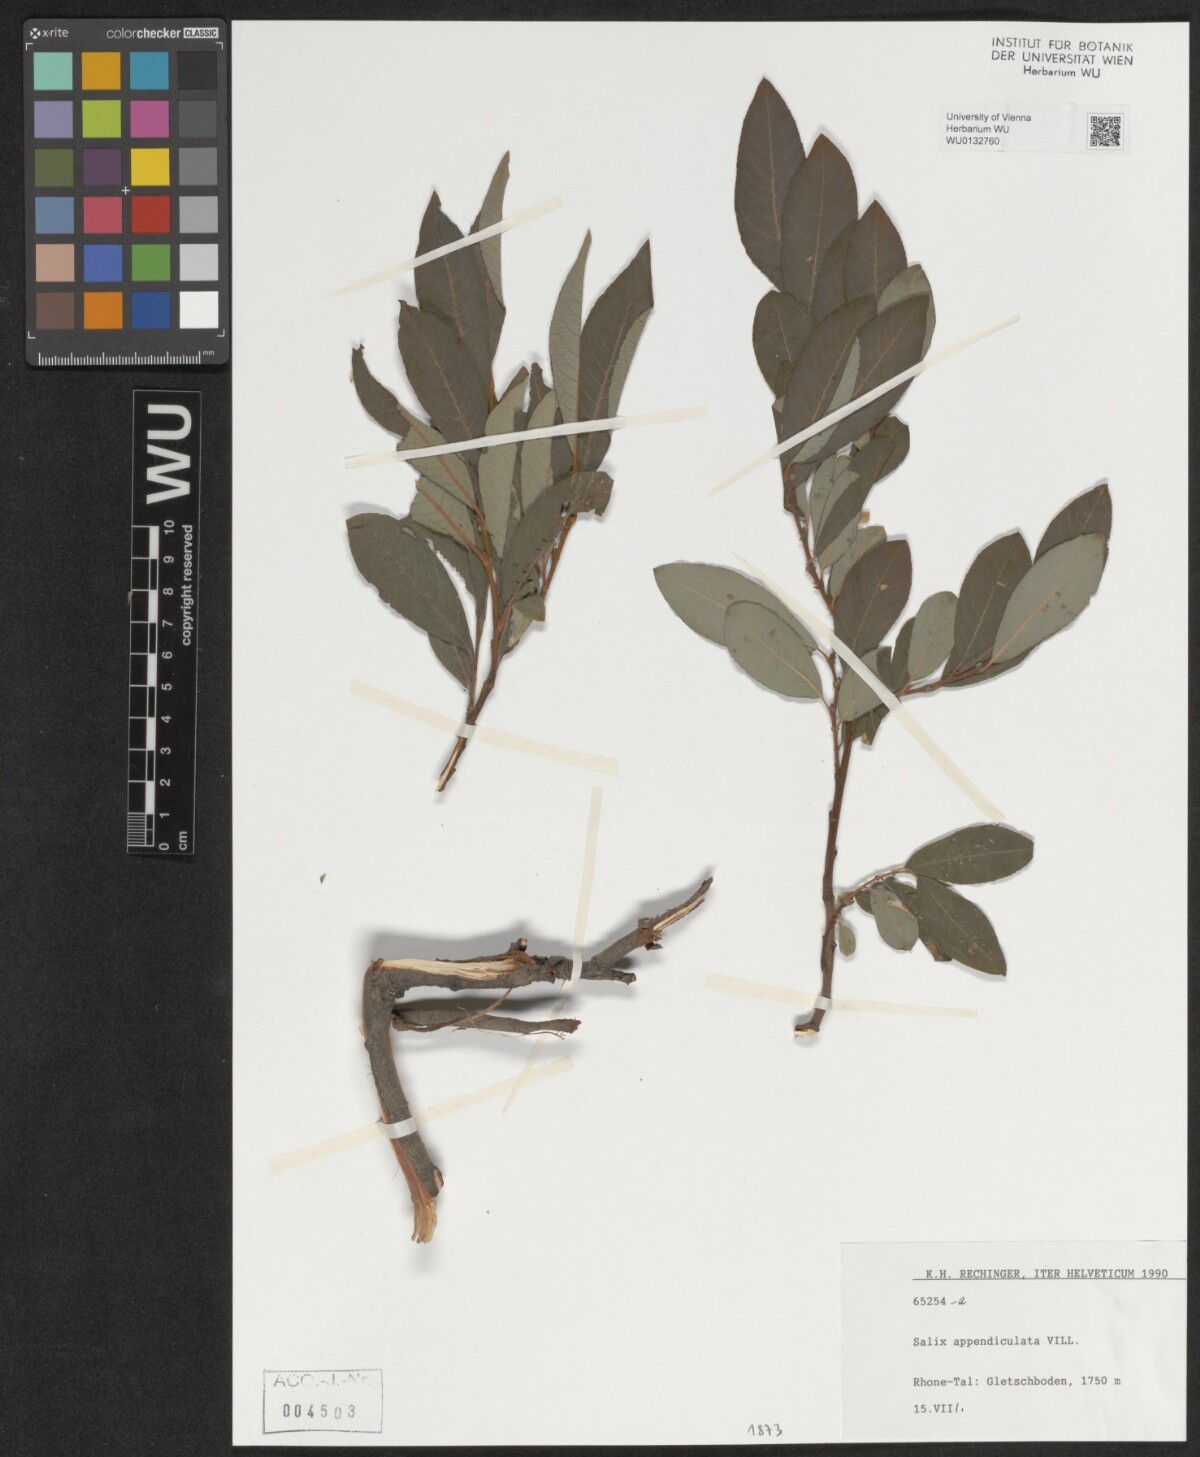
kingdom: Plantae
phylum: Tracheophyta
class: Magnoliopsida
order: Malpighiales
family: Salicaceae
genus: Salix
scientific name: Salix appendiculata
